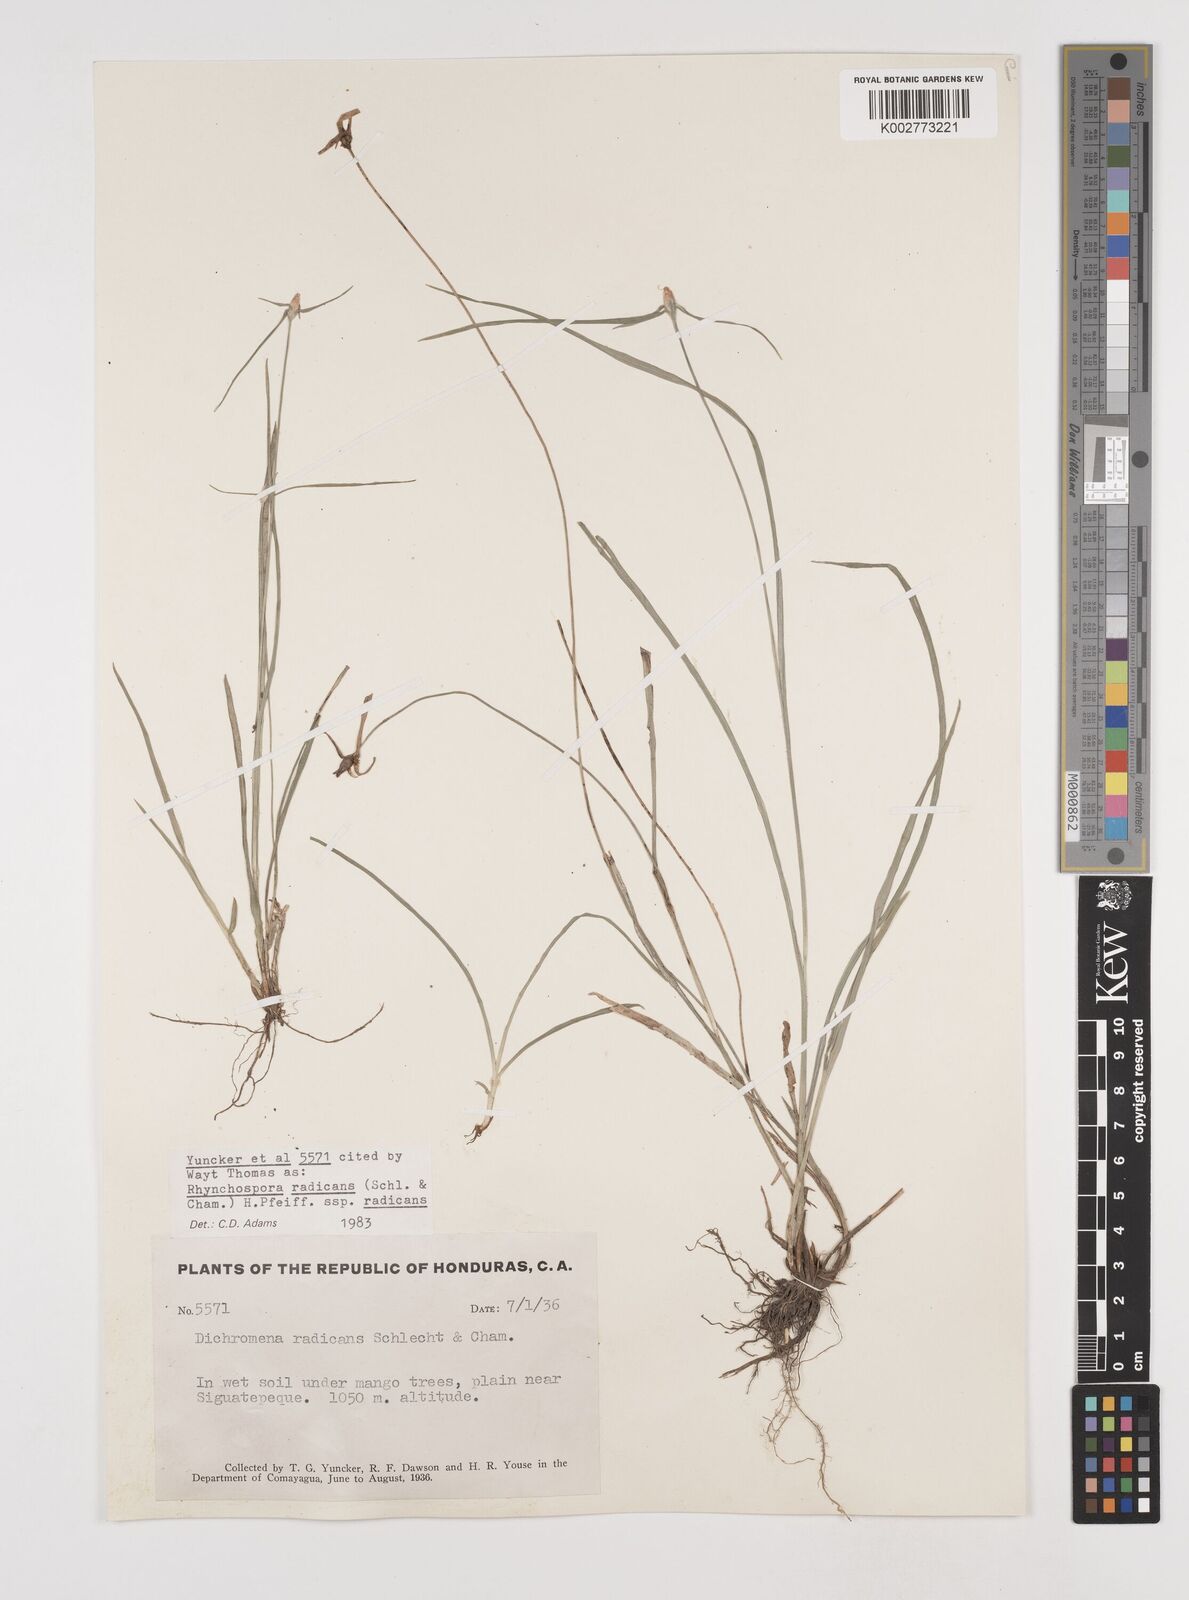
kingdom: Plantae
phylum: Tracheophyta
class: Liliopsida
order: Poales
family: Cyperaceae
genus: Rhynchospora
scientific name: Rhynchospora radicans
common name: Tropical whitetop
